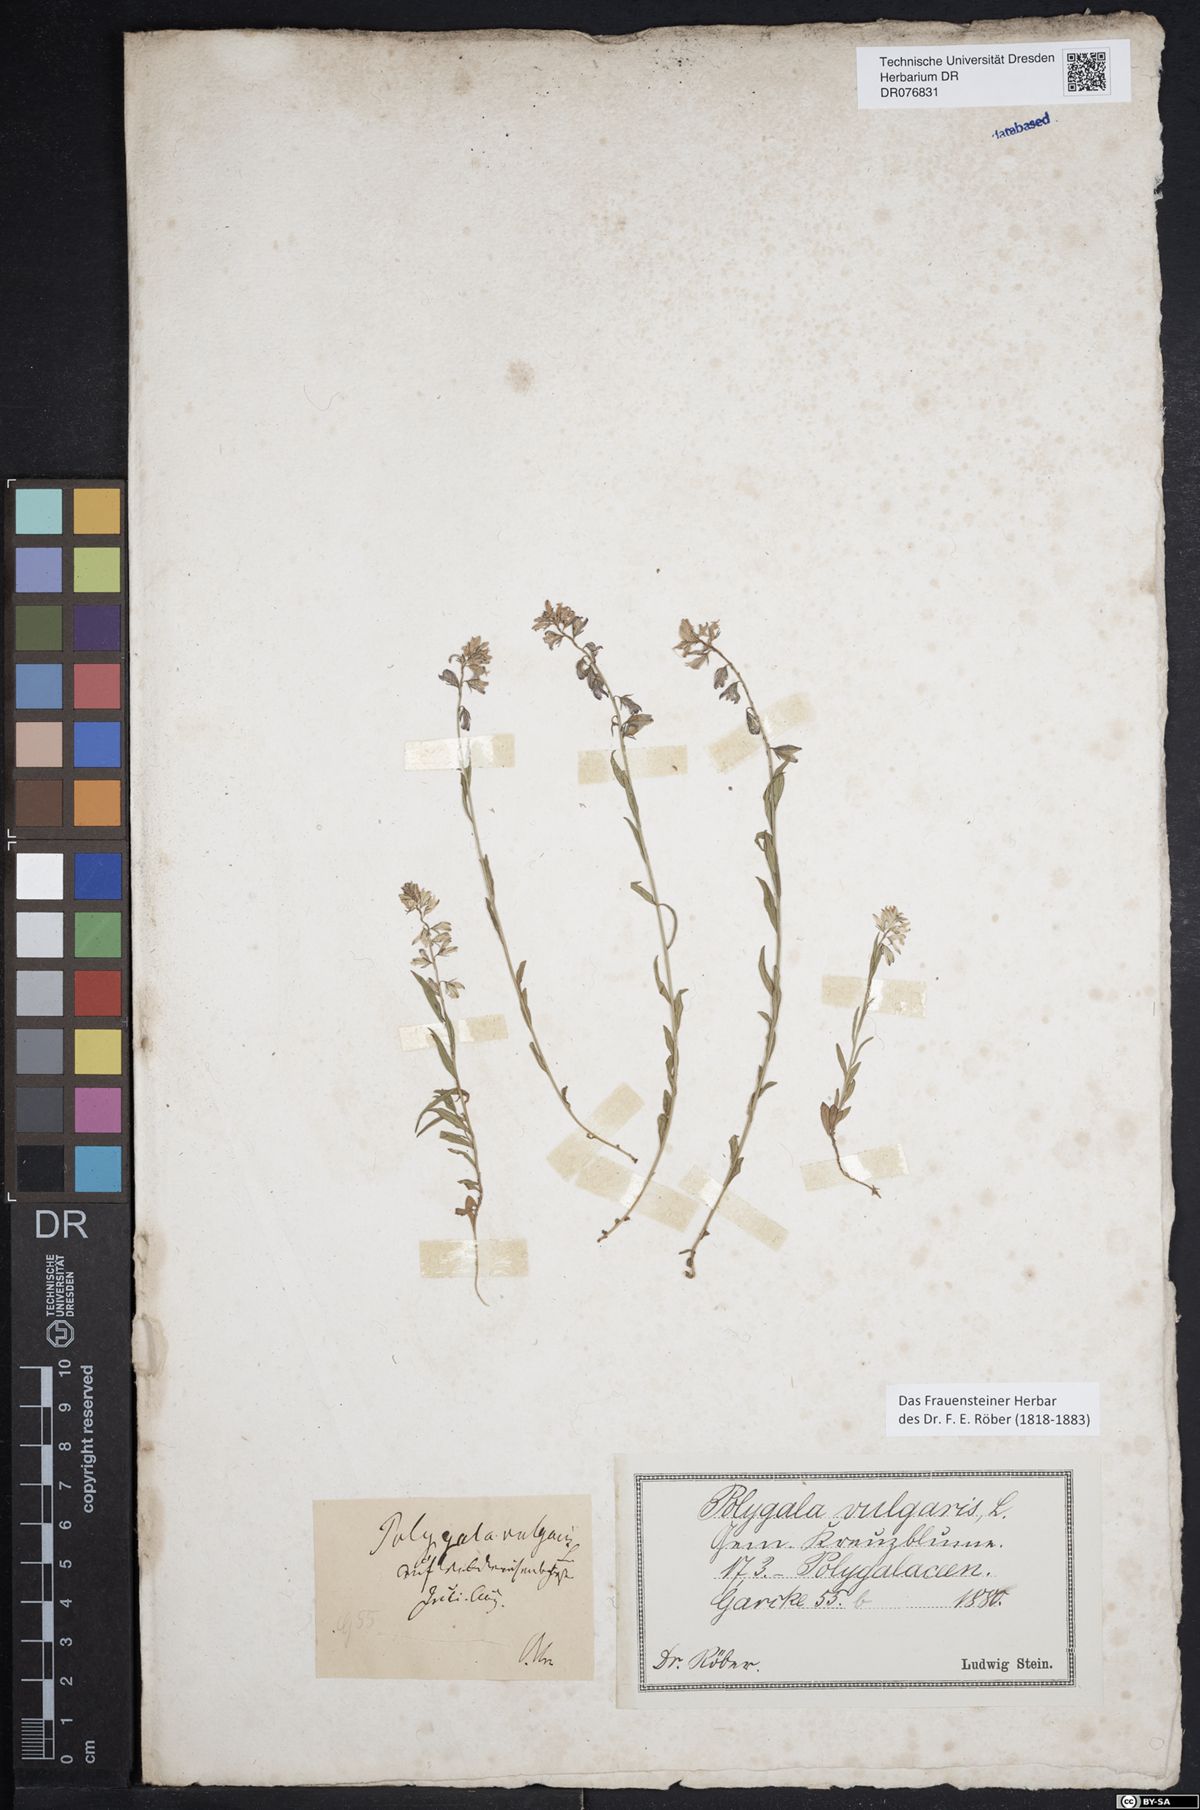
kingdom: Plantae
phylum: Tracheophyta
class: Magnoliopsida
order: Fabales
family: Polygalaceae
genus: Polygala
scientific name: Polygala vulgaris
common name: Common milkwort
